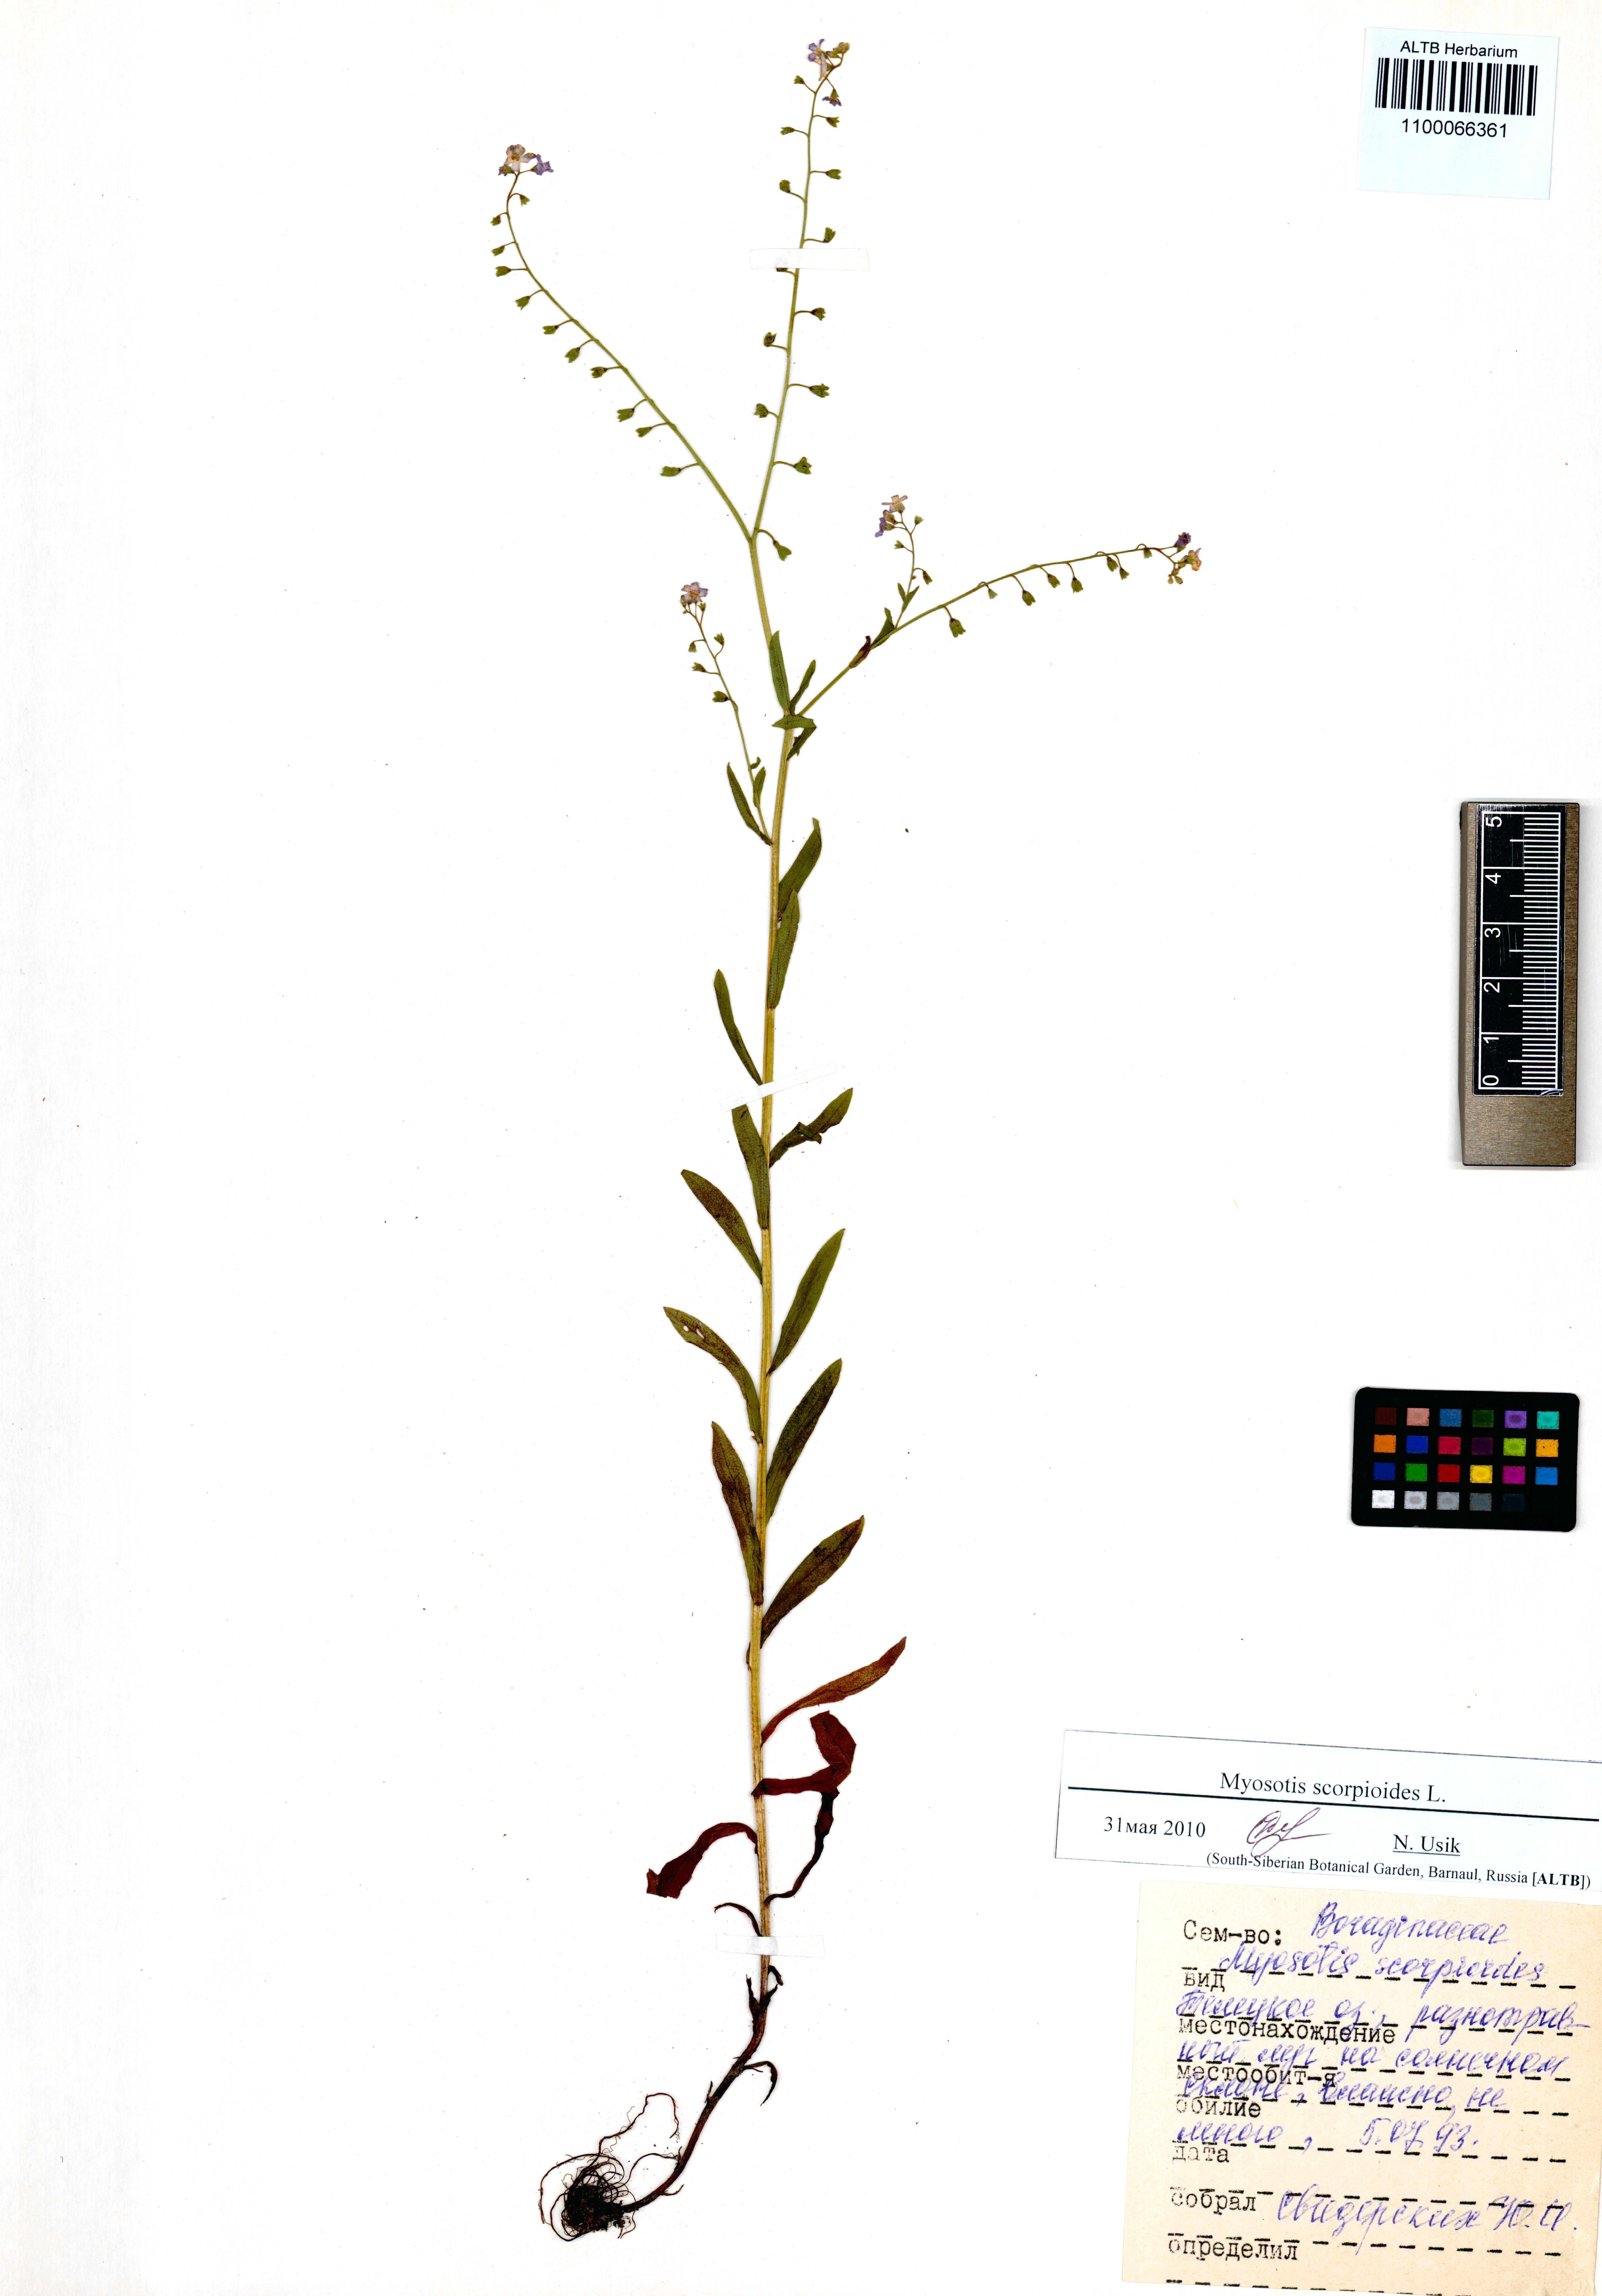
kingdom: Plantae
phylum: Tracheophyta
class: Magnoliopsida
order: Boraginales
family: Boraginaceae
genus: Myosotis
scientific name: Myosotis scorpioides
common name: Water forget-me-not
